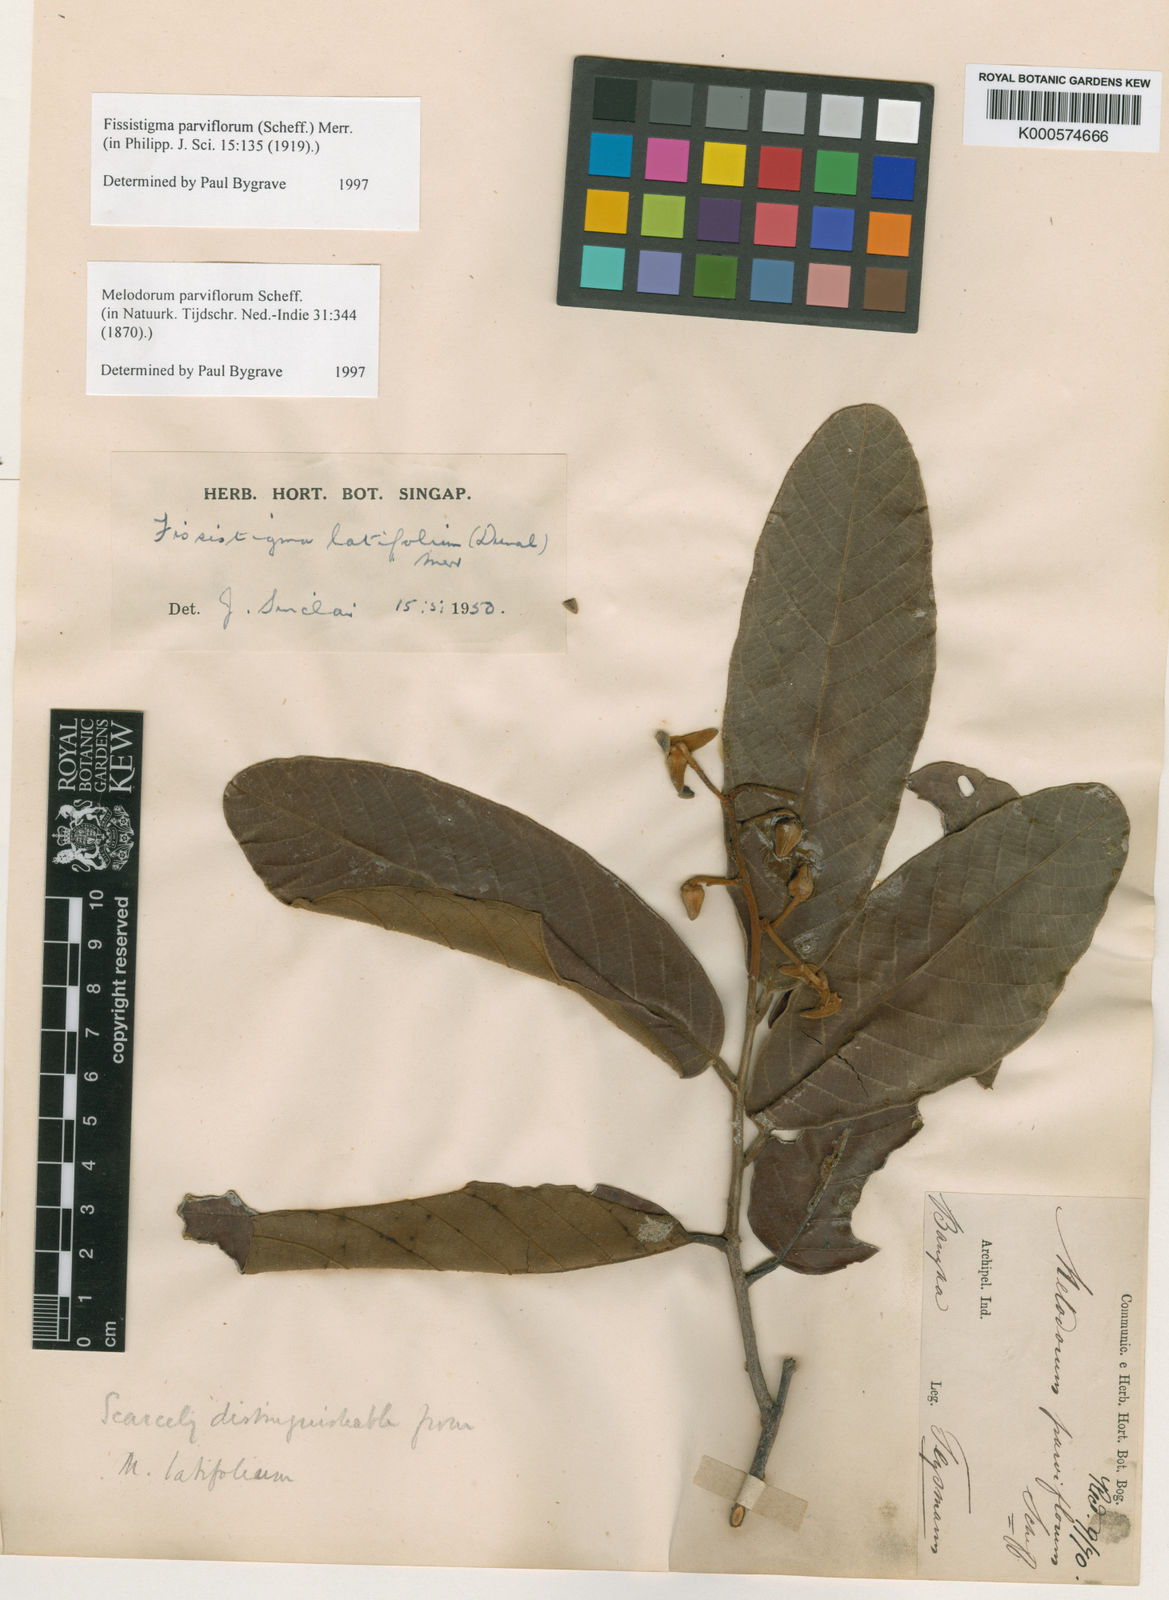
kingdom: Plantae
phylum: Tracheophyta
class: Magnoliopsida
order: Magnoliales
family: Annonaceae
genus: Melodorum
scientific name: Melodorum parviflorum
